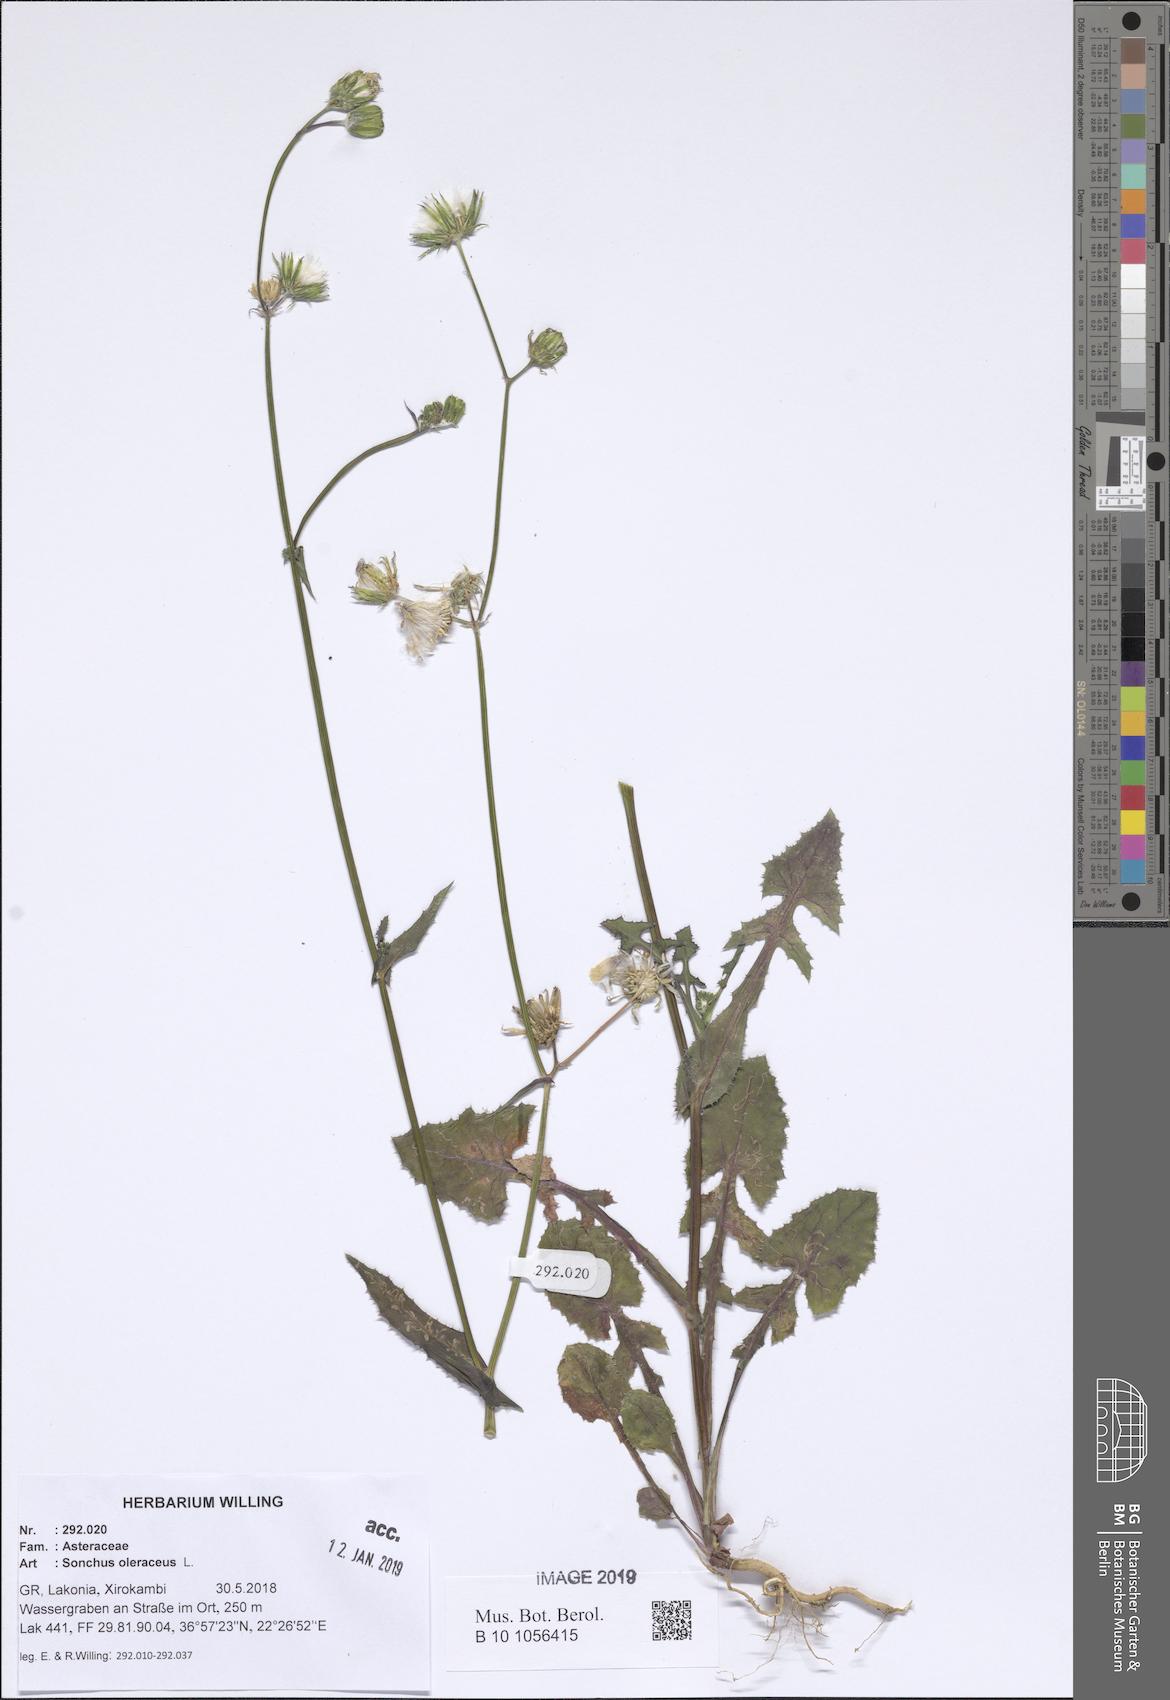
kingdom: Plantae
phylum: Tracheophyta
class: Magnoliopsida
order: Asterales
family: Asteraceae
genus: Sonchus
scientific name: Sonchus oleraceus
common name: Common sowthistle
